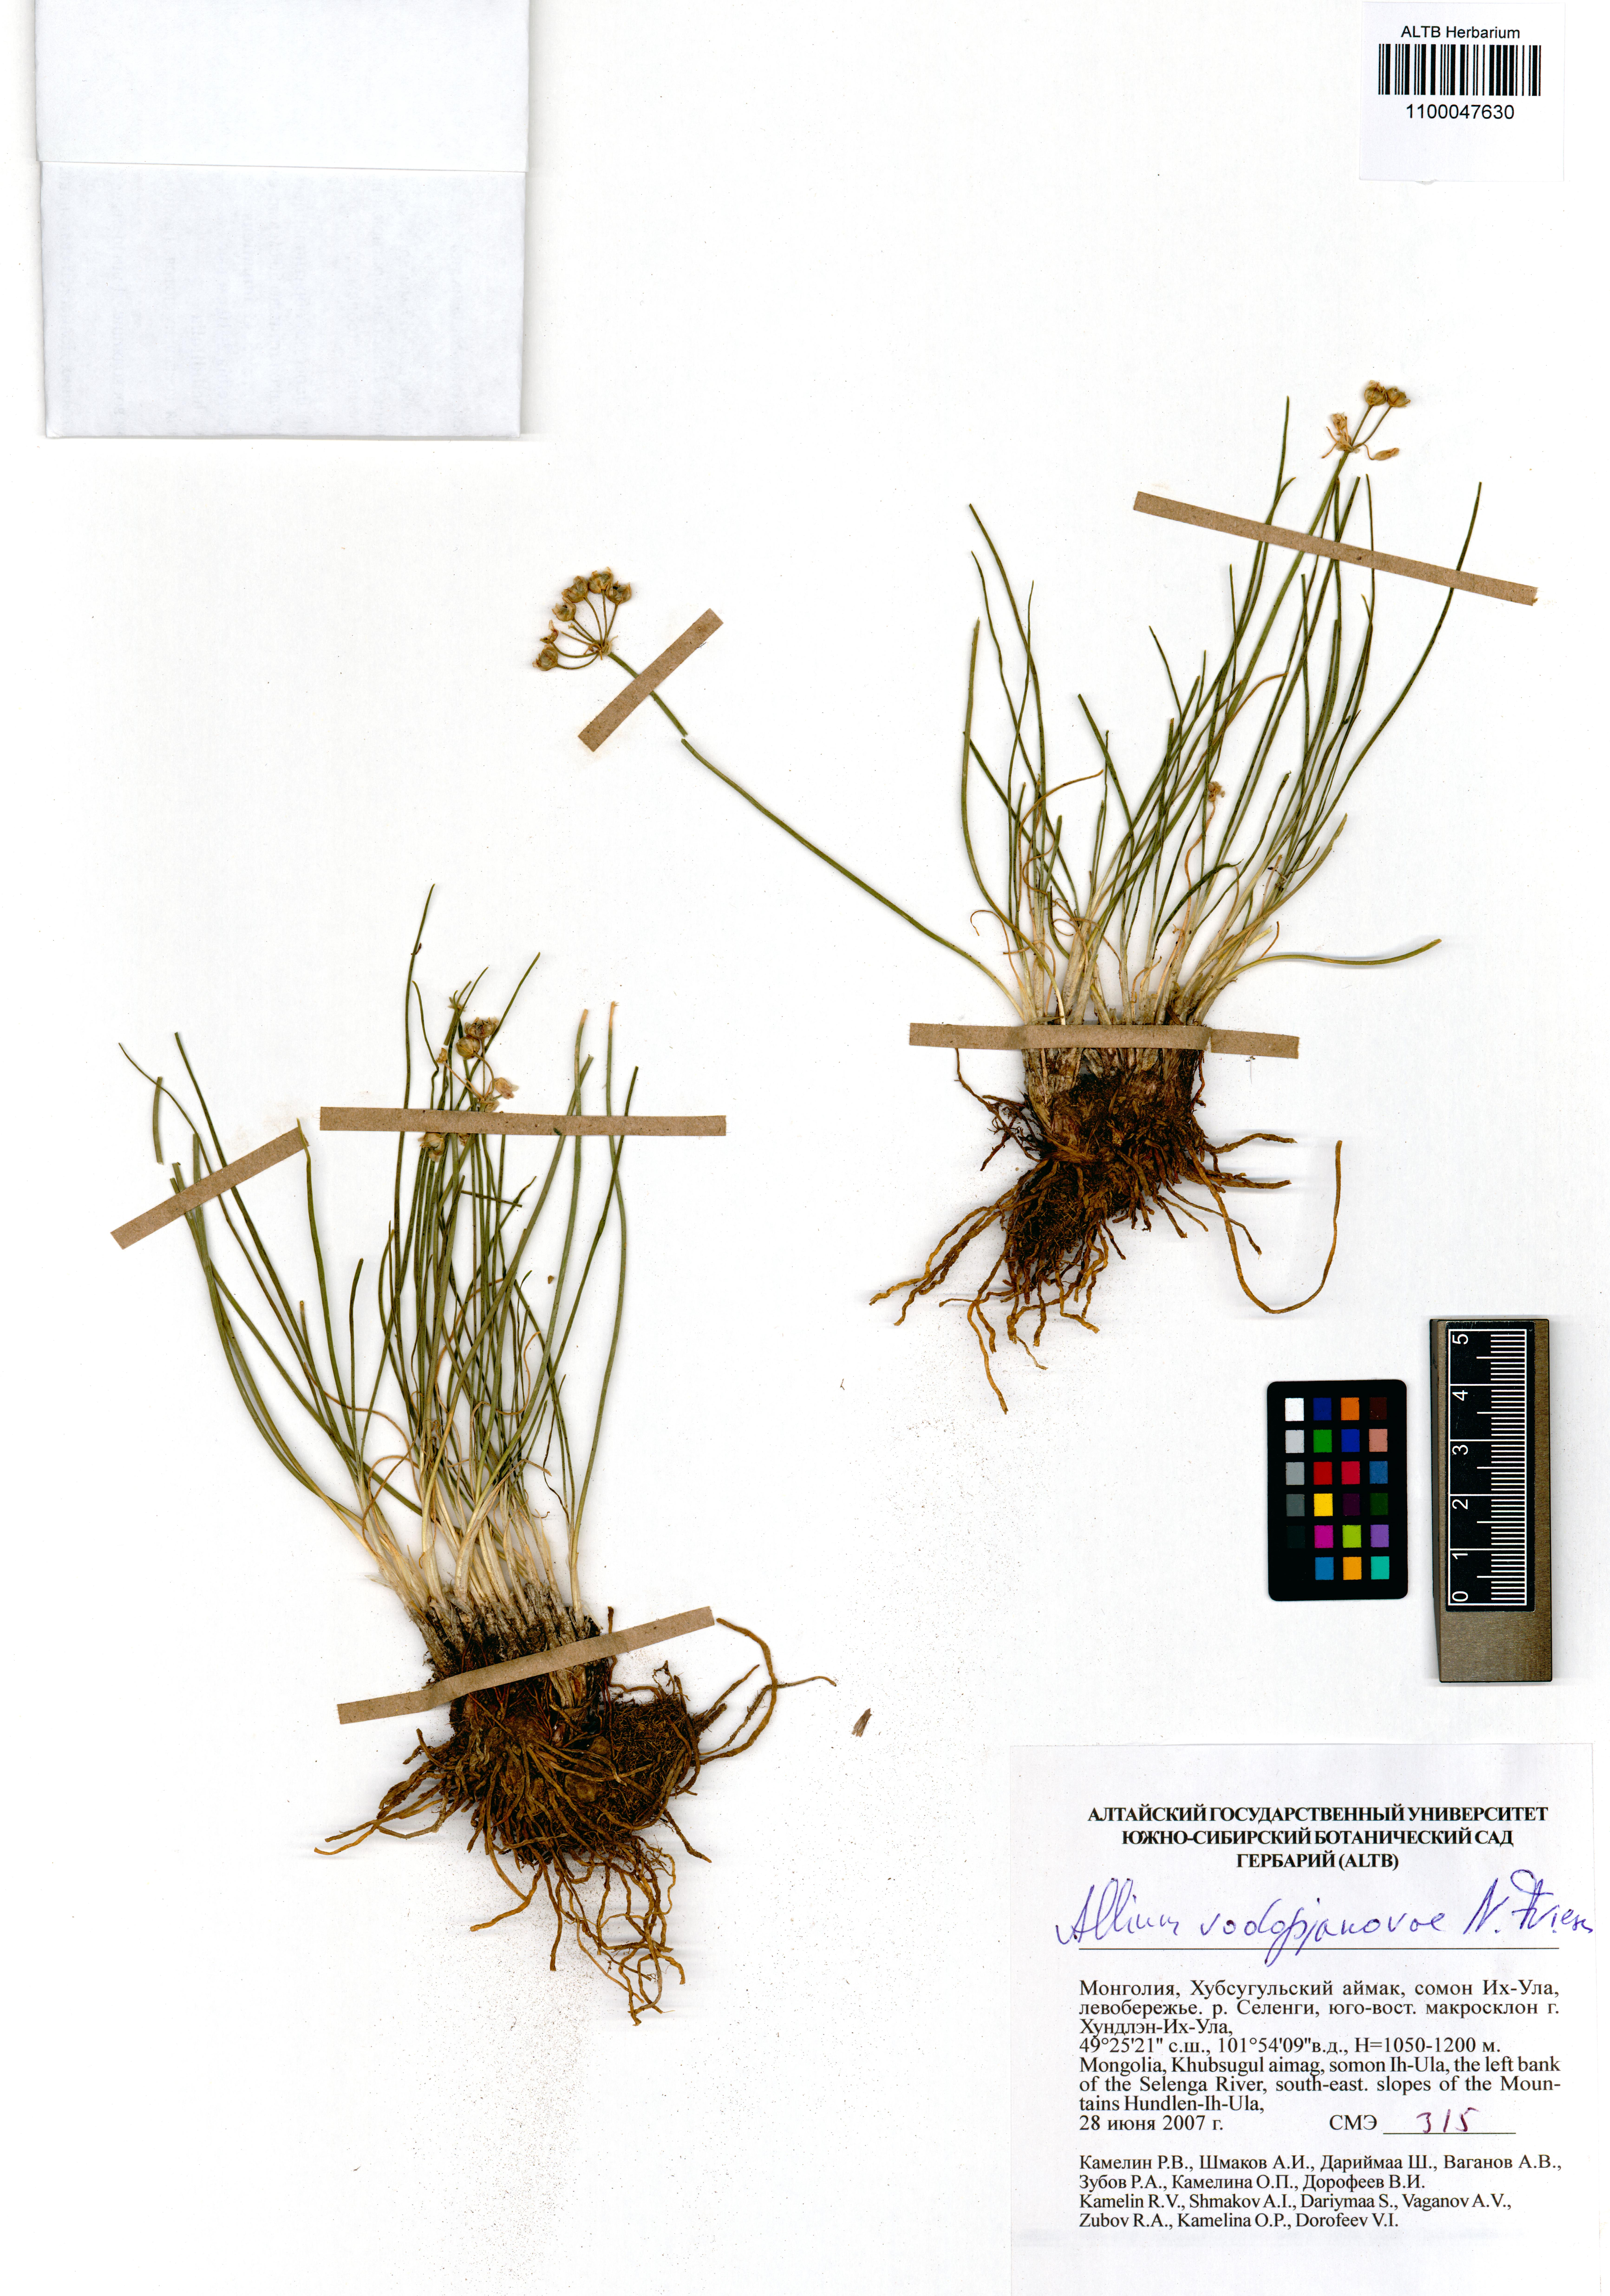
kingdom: Plantae
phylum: Tracheophyta
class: Liliopsida
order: Asparagales
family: Amaryllidaceae
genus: Allium
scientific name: Allium vodopjanovae
